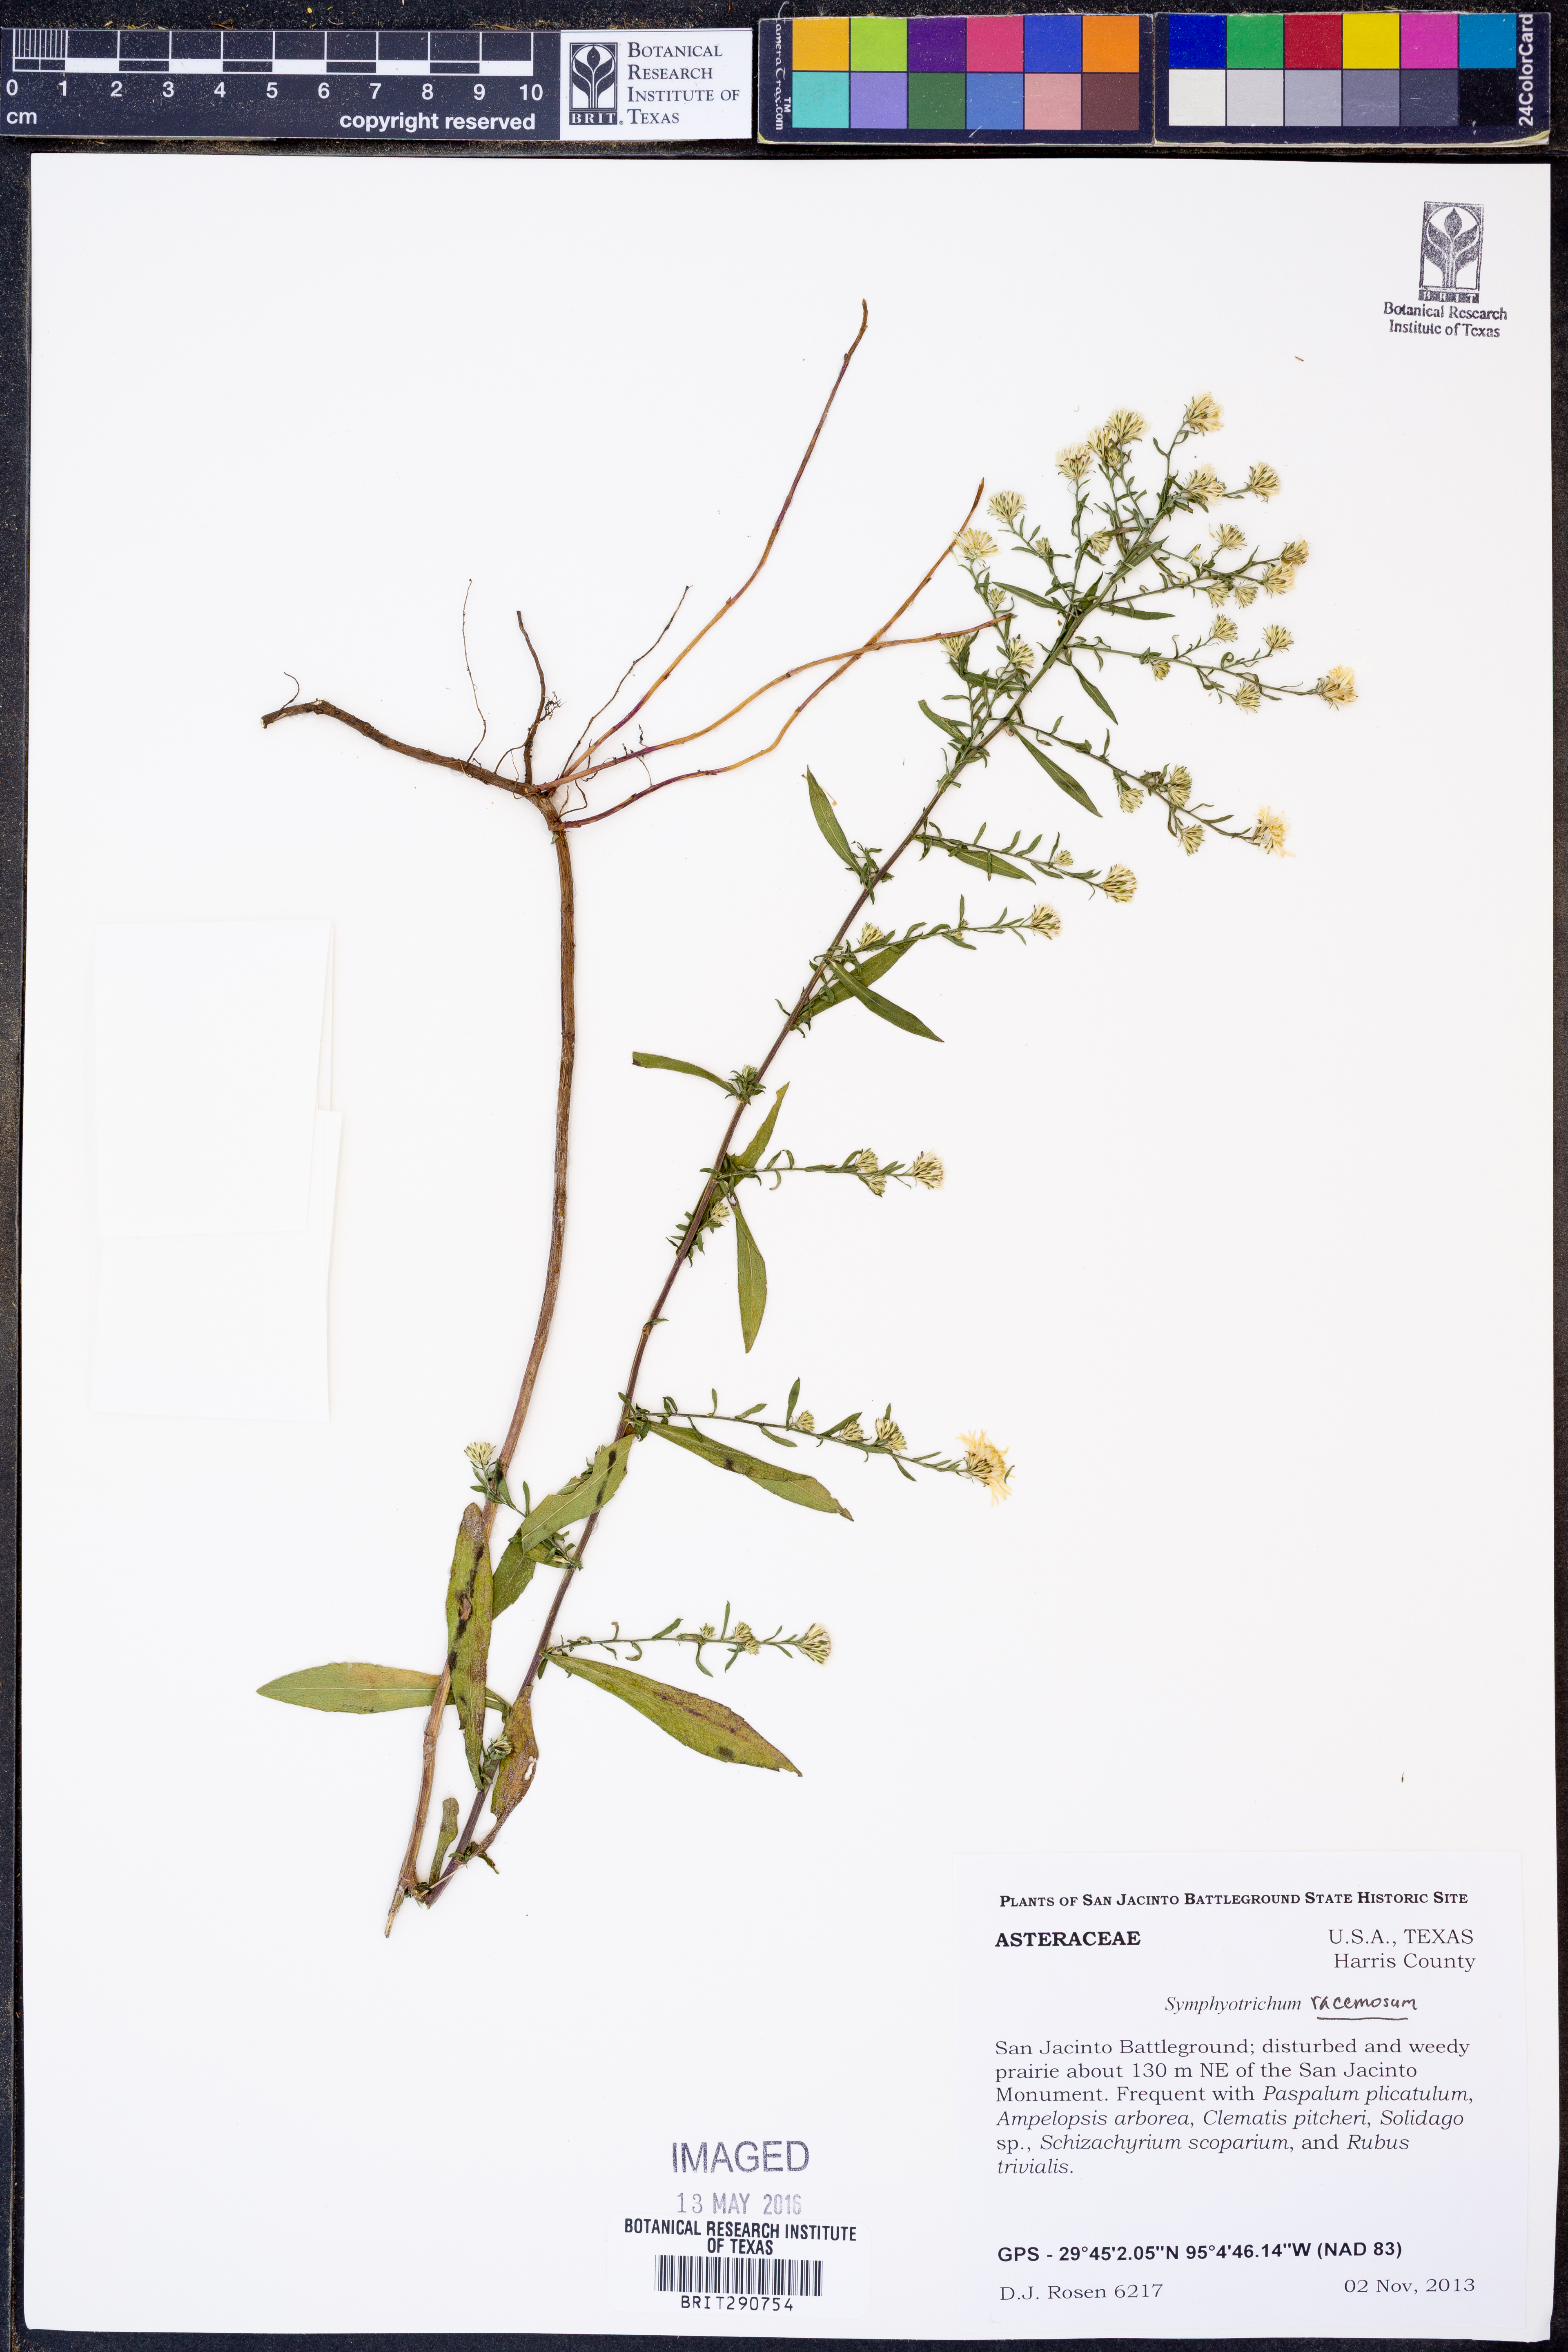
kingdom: Plantae
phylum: Tracheophyta
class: Magnoliopsida
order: Asterales
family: Asteraceae
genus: Symphyotrichum
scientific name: Symphyotrichum racemosum
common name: Small white aster
